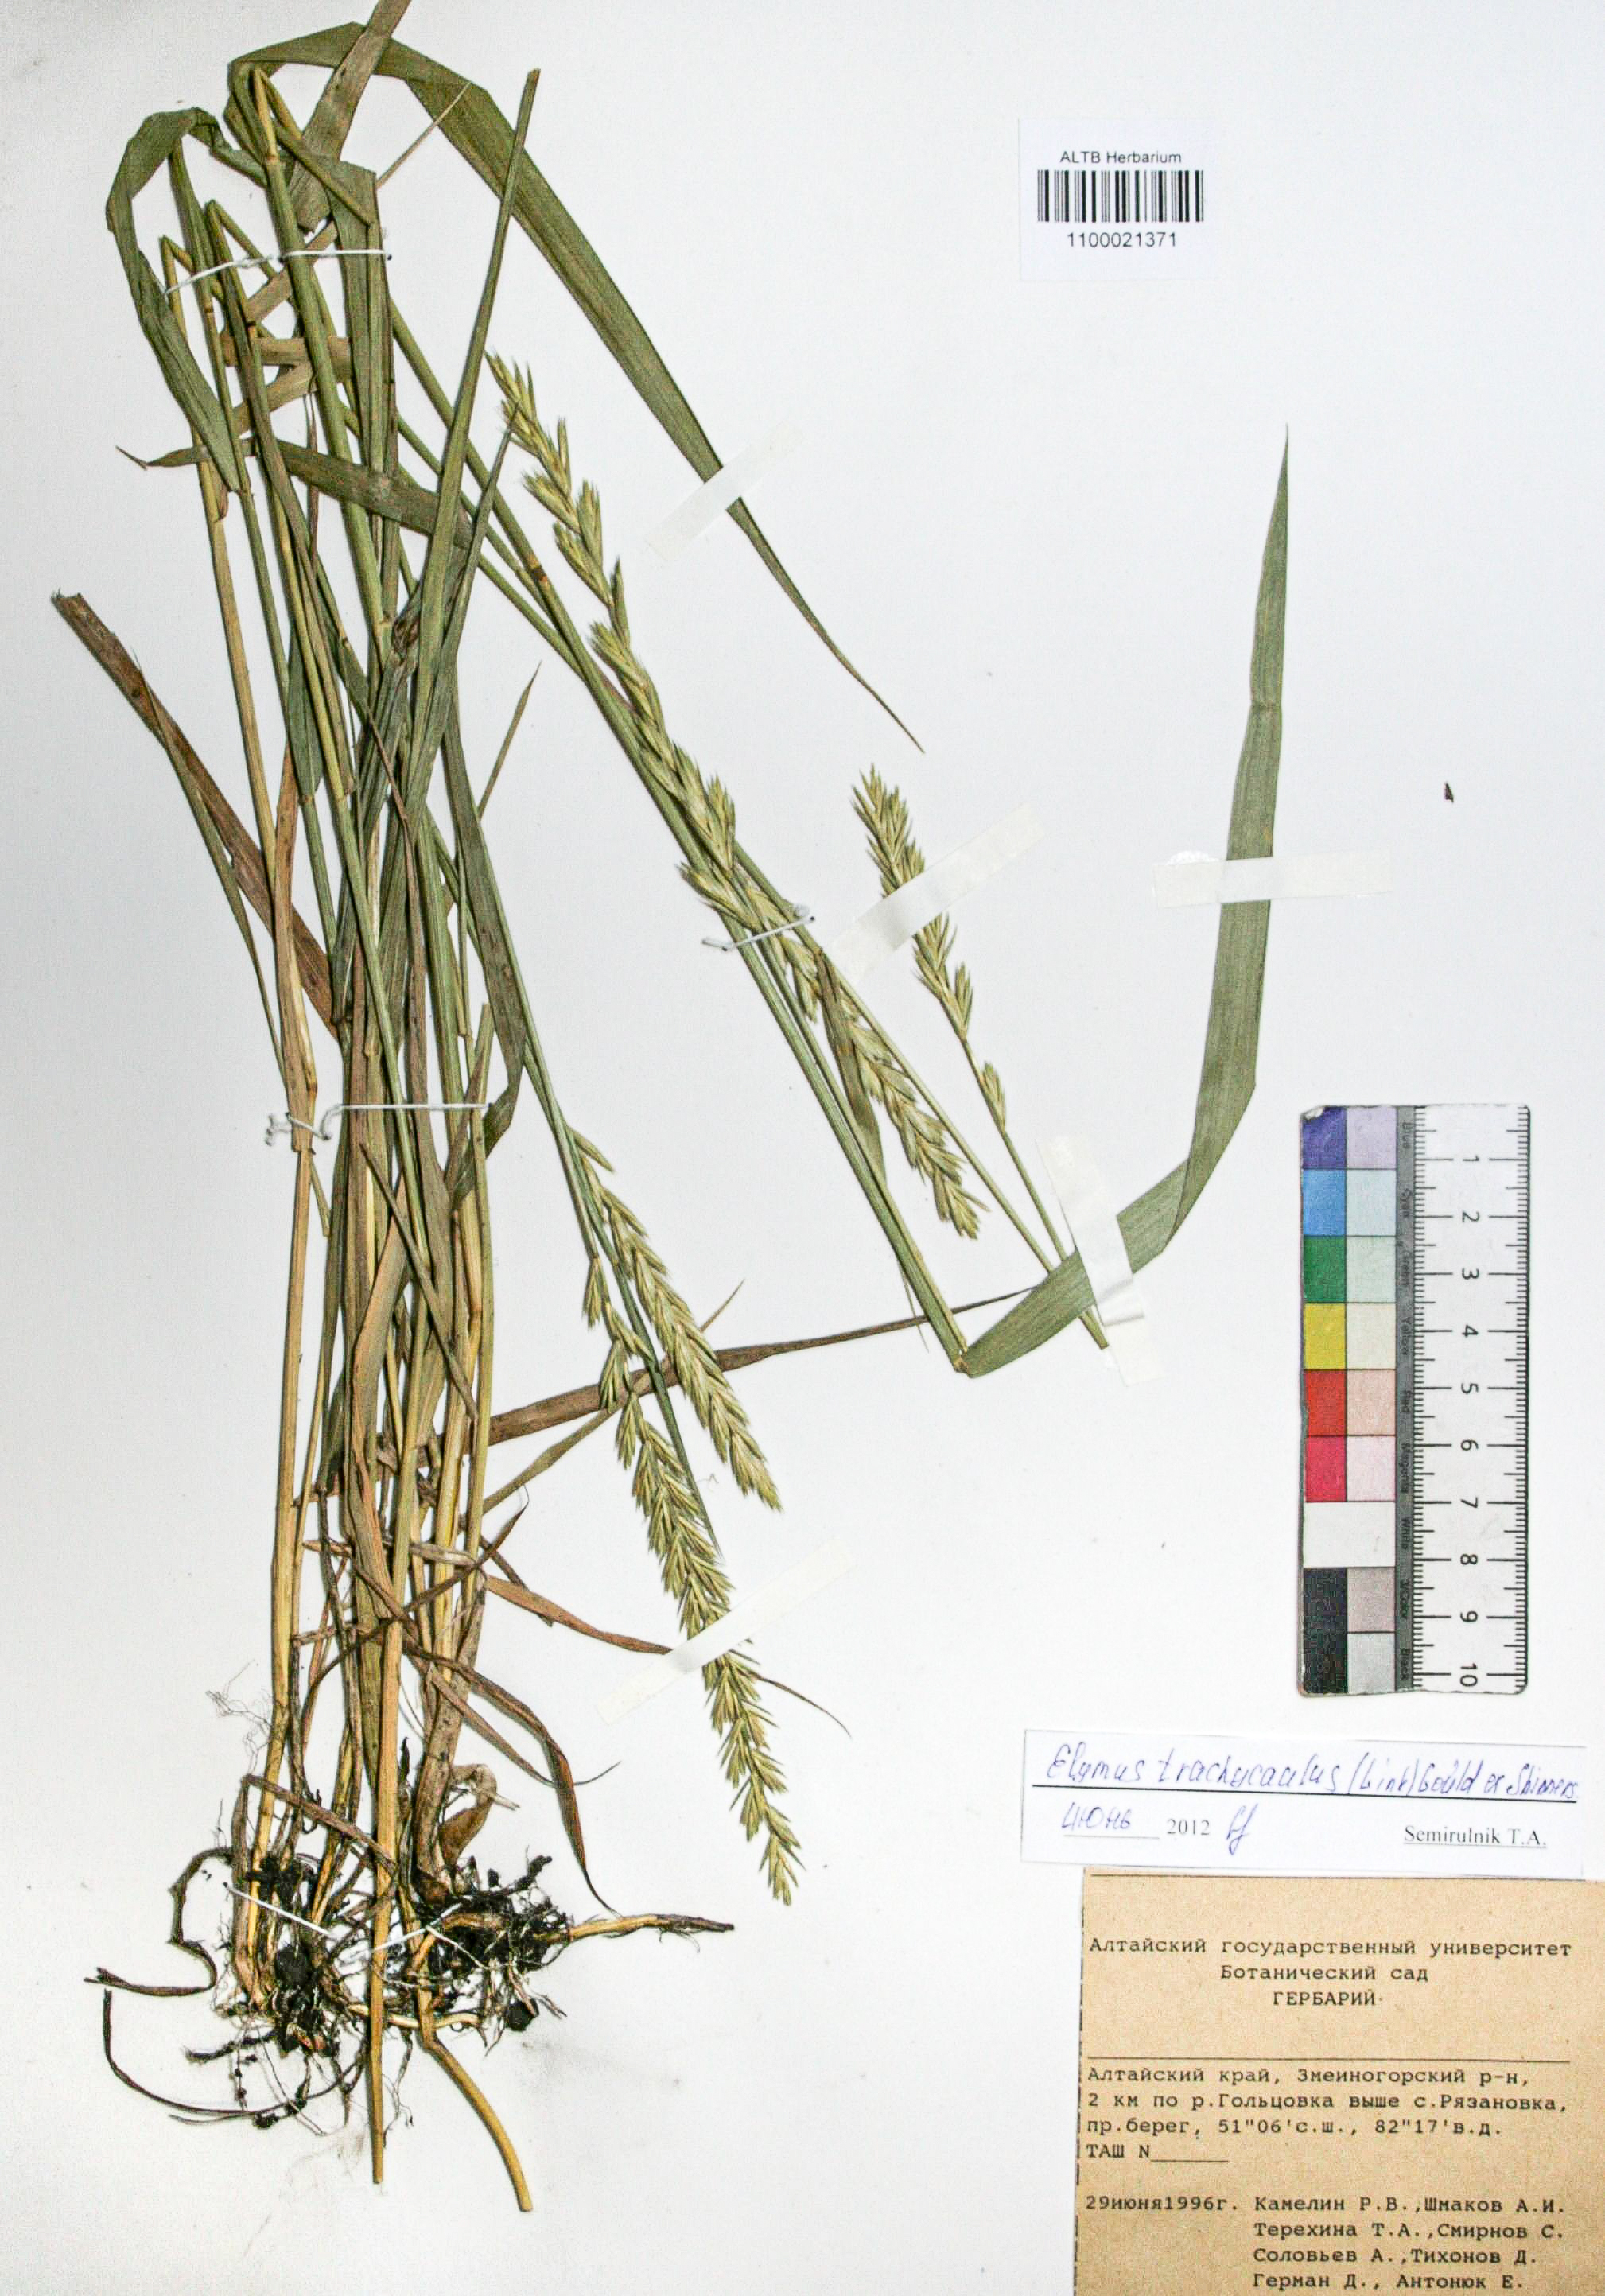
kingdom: Plantae
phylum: Tracheophyta
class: Liliopsida
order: Poales
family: Poaceae
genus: Elymus
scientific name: Elymus violaceus
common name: Arctic wheatgrass
